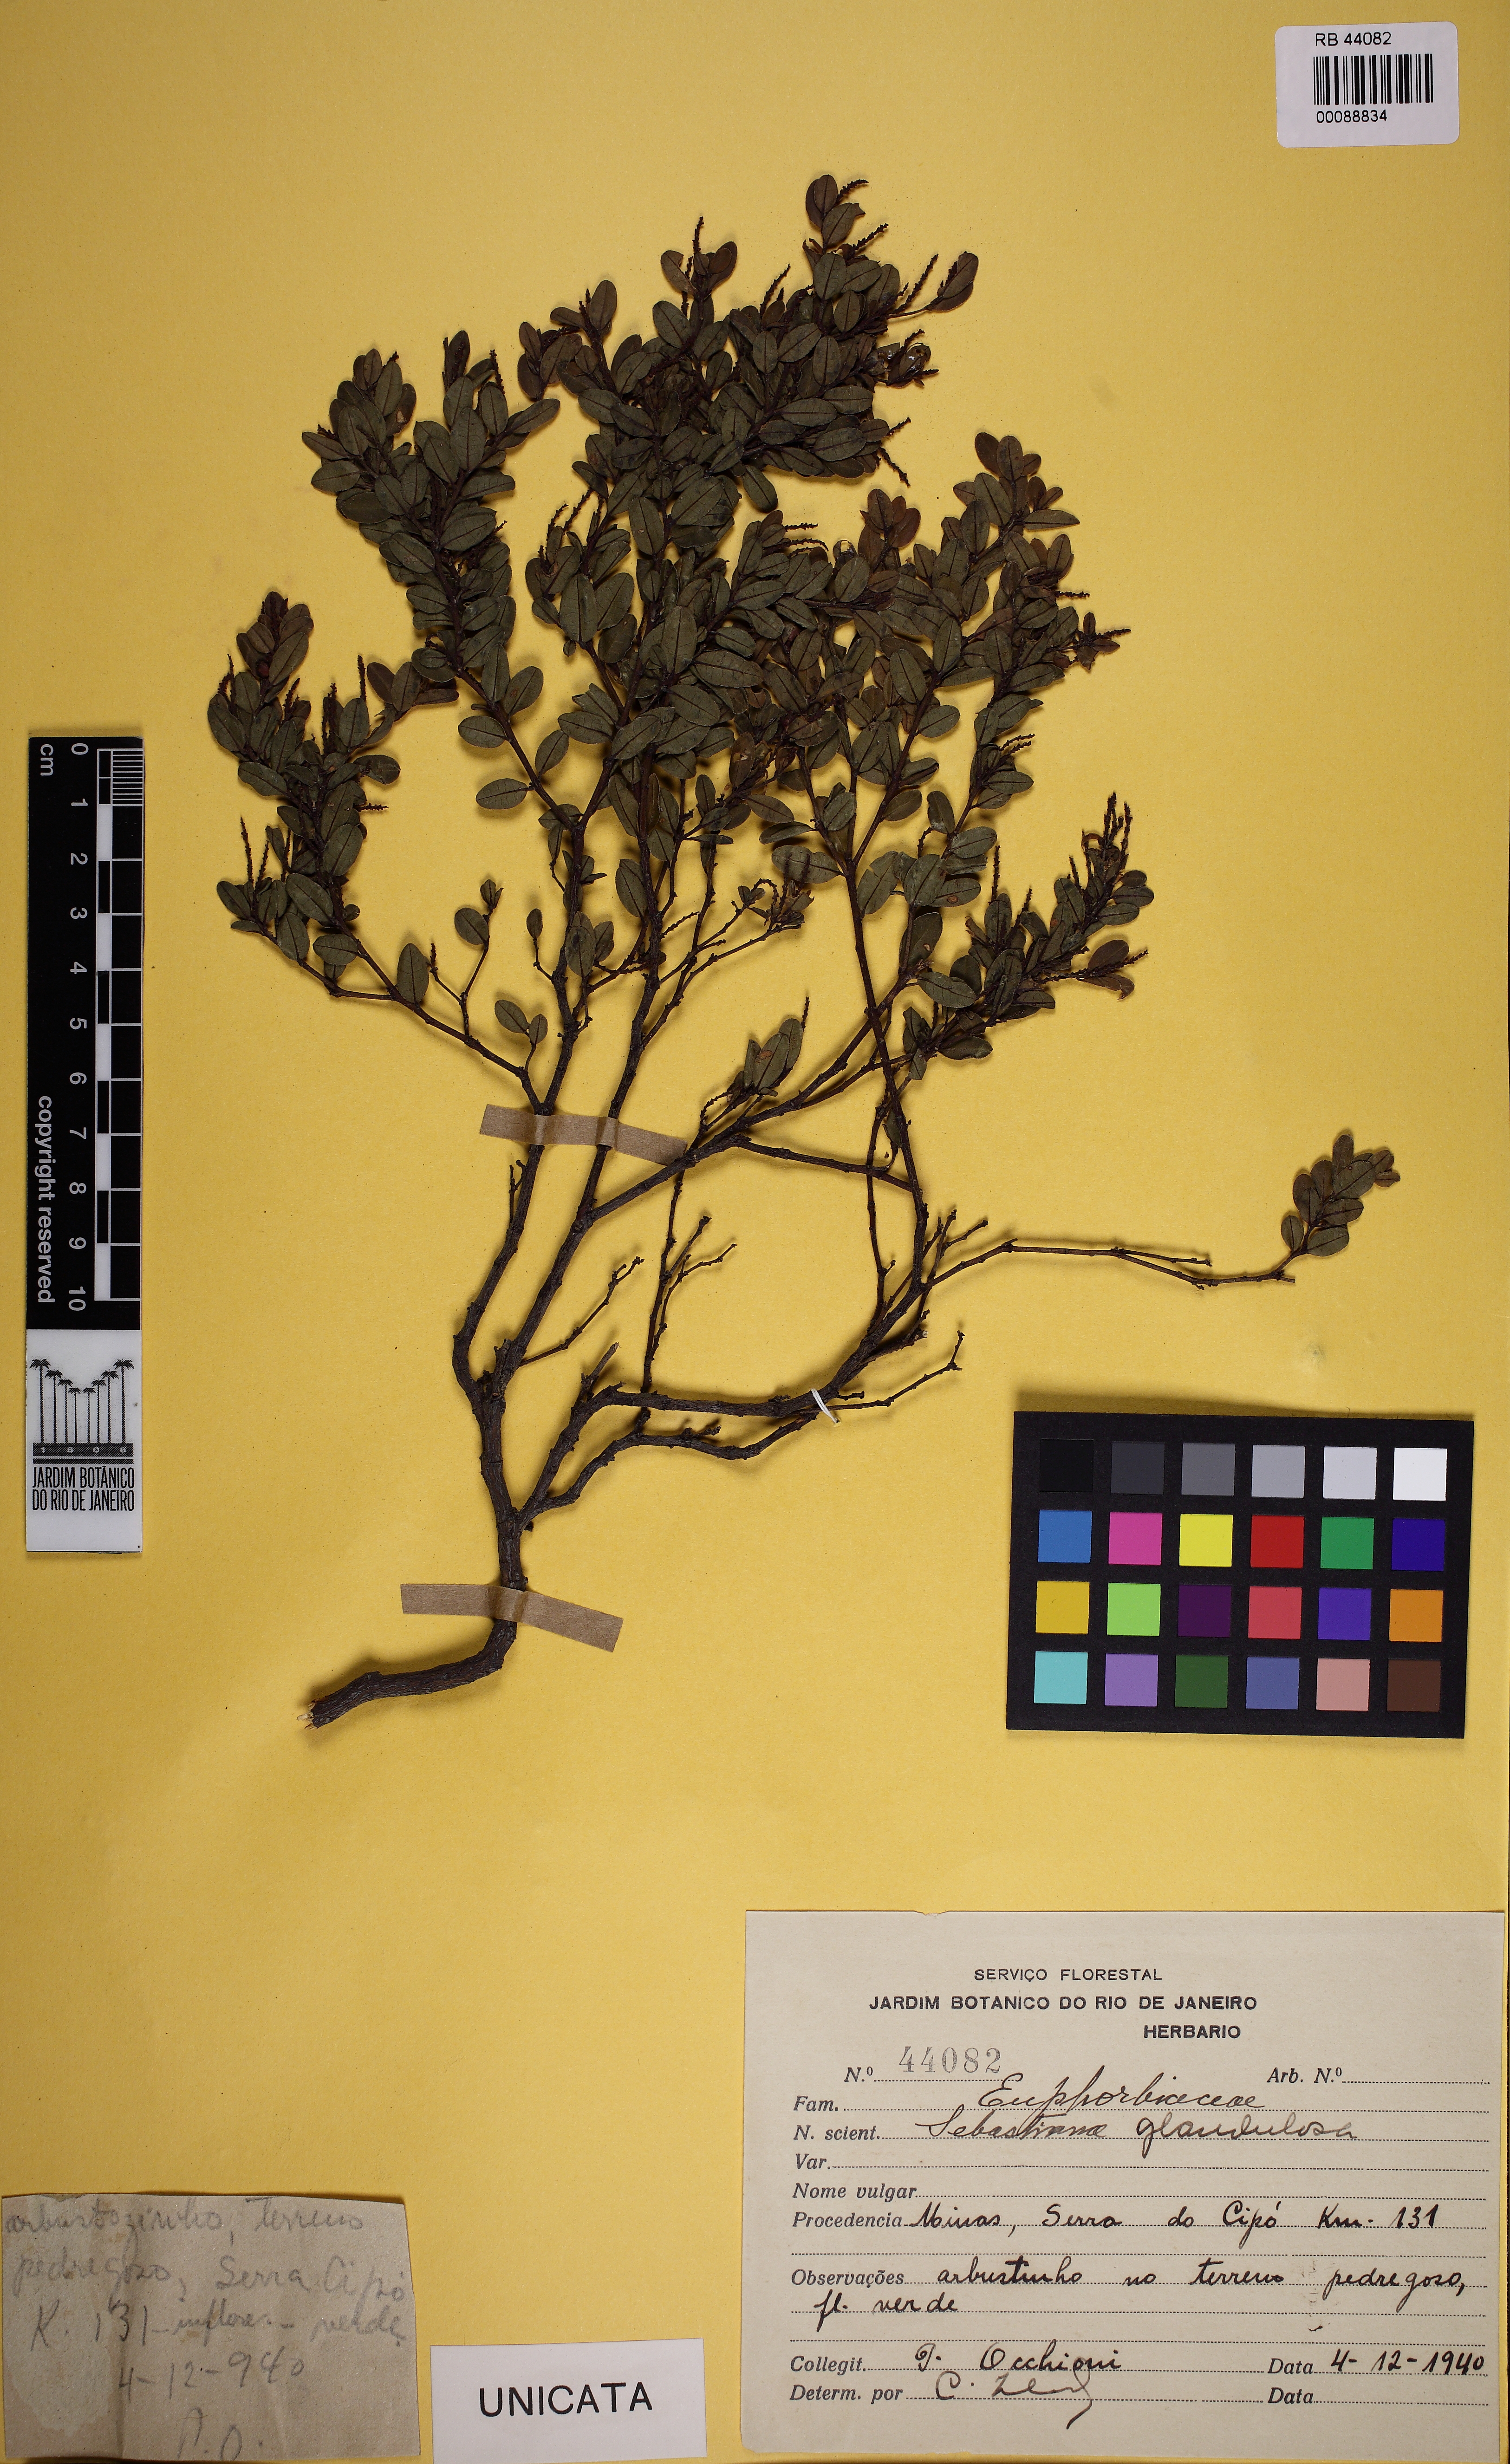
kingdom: Plantae
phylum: Tracheophyta
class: Magnoliopsida
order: Malpighiales
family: Euphorbiaceae
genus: Microstachys
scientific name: Microstachys corniculata
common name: Hato tejas
